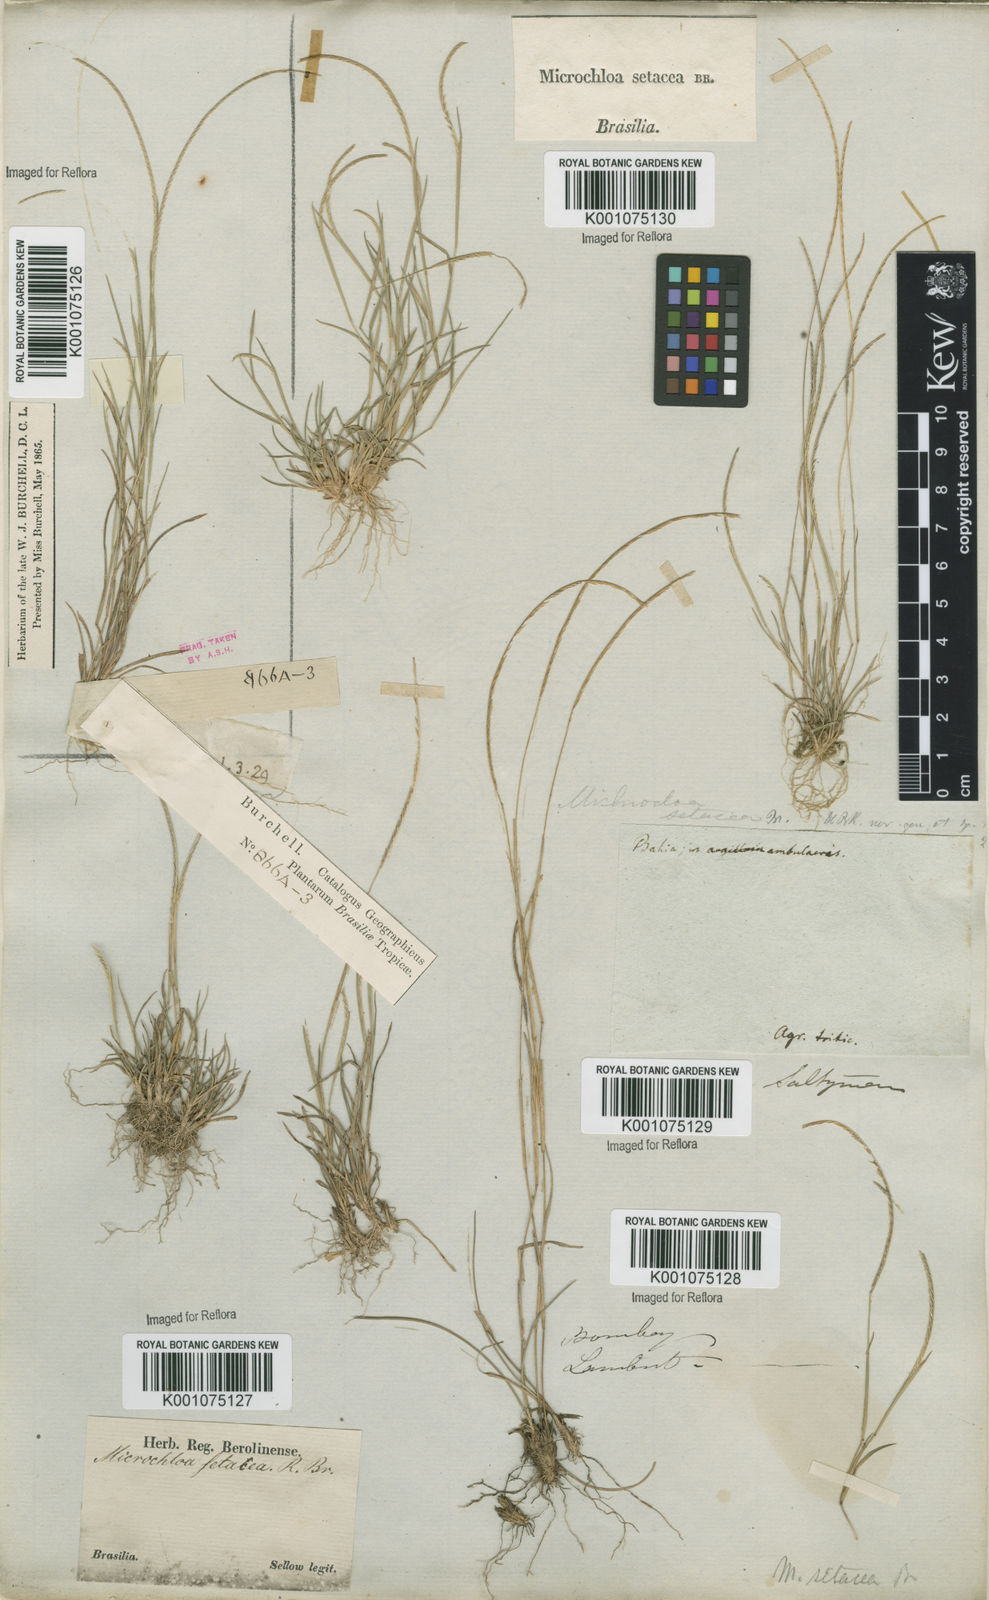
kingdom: Plantae
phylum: Tracheophyta
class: Liliopsida
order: Poales
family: Poaceae
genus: Microchloa
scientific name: Microchloa indica
